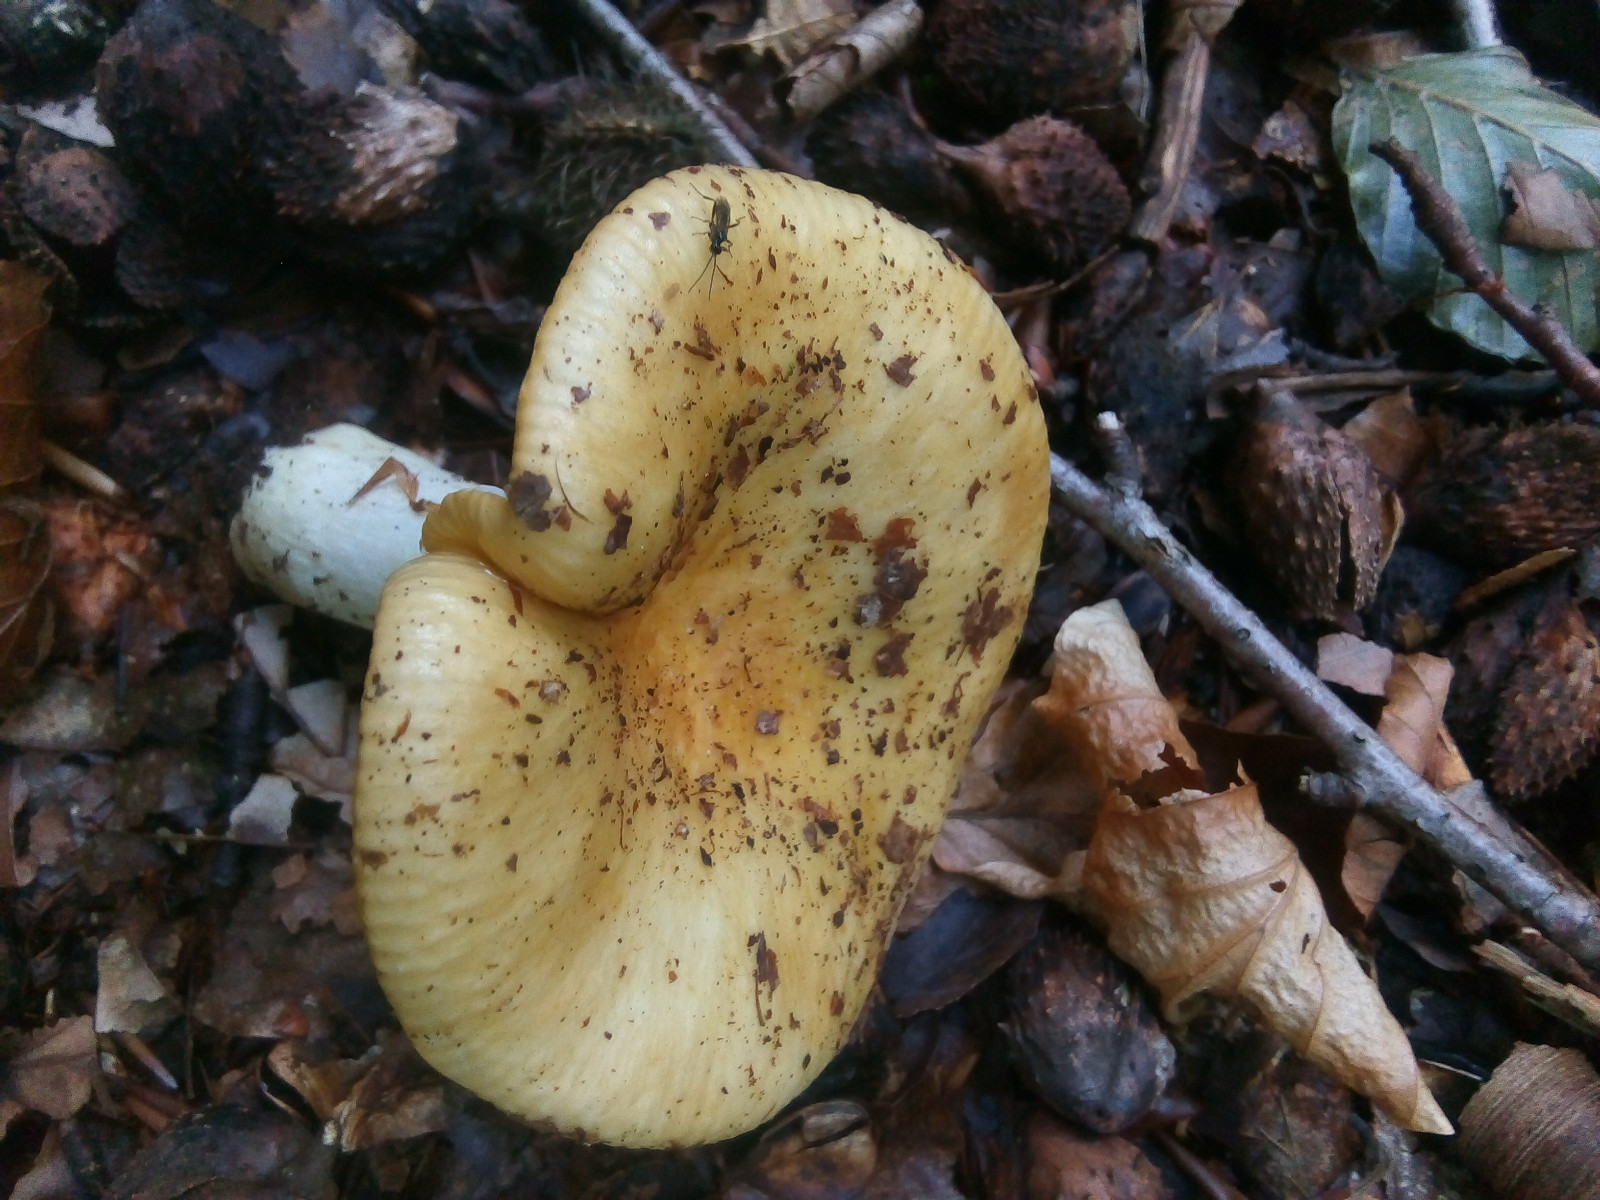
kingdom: Fungi
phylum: Basidiomycota
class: Agaricomycetes
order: Russulales
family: Russulaceae
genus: Russula
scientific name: Russula ochroleuca
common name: okkergul skørhat
